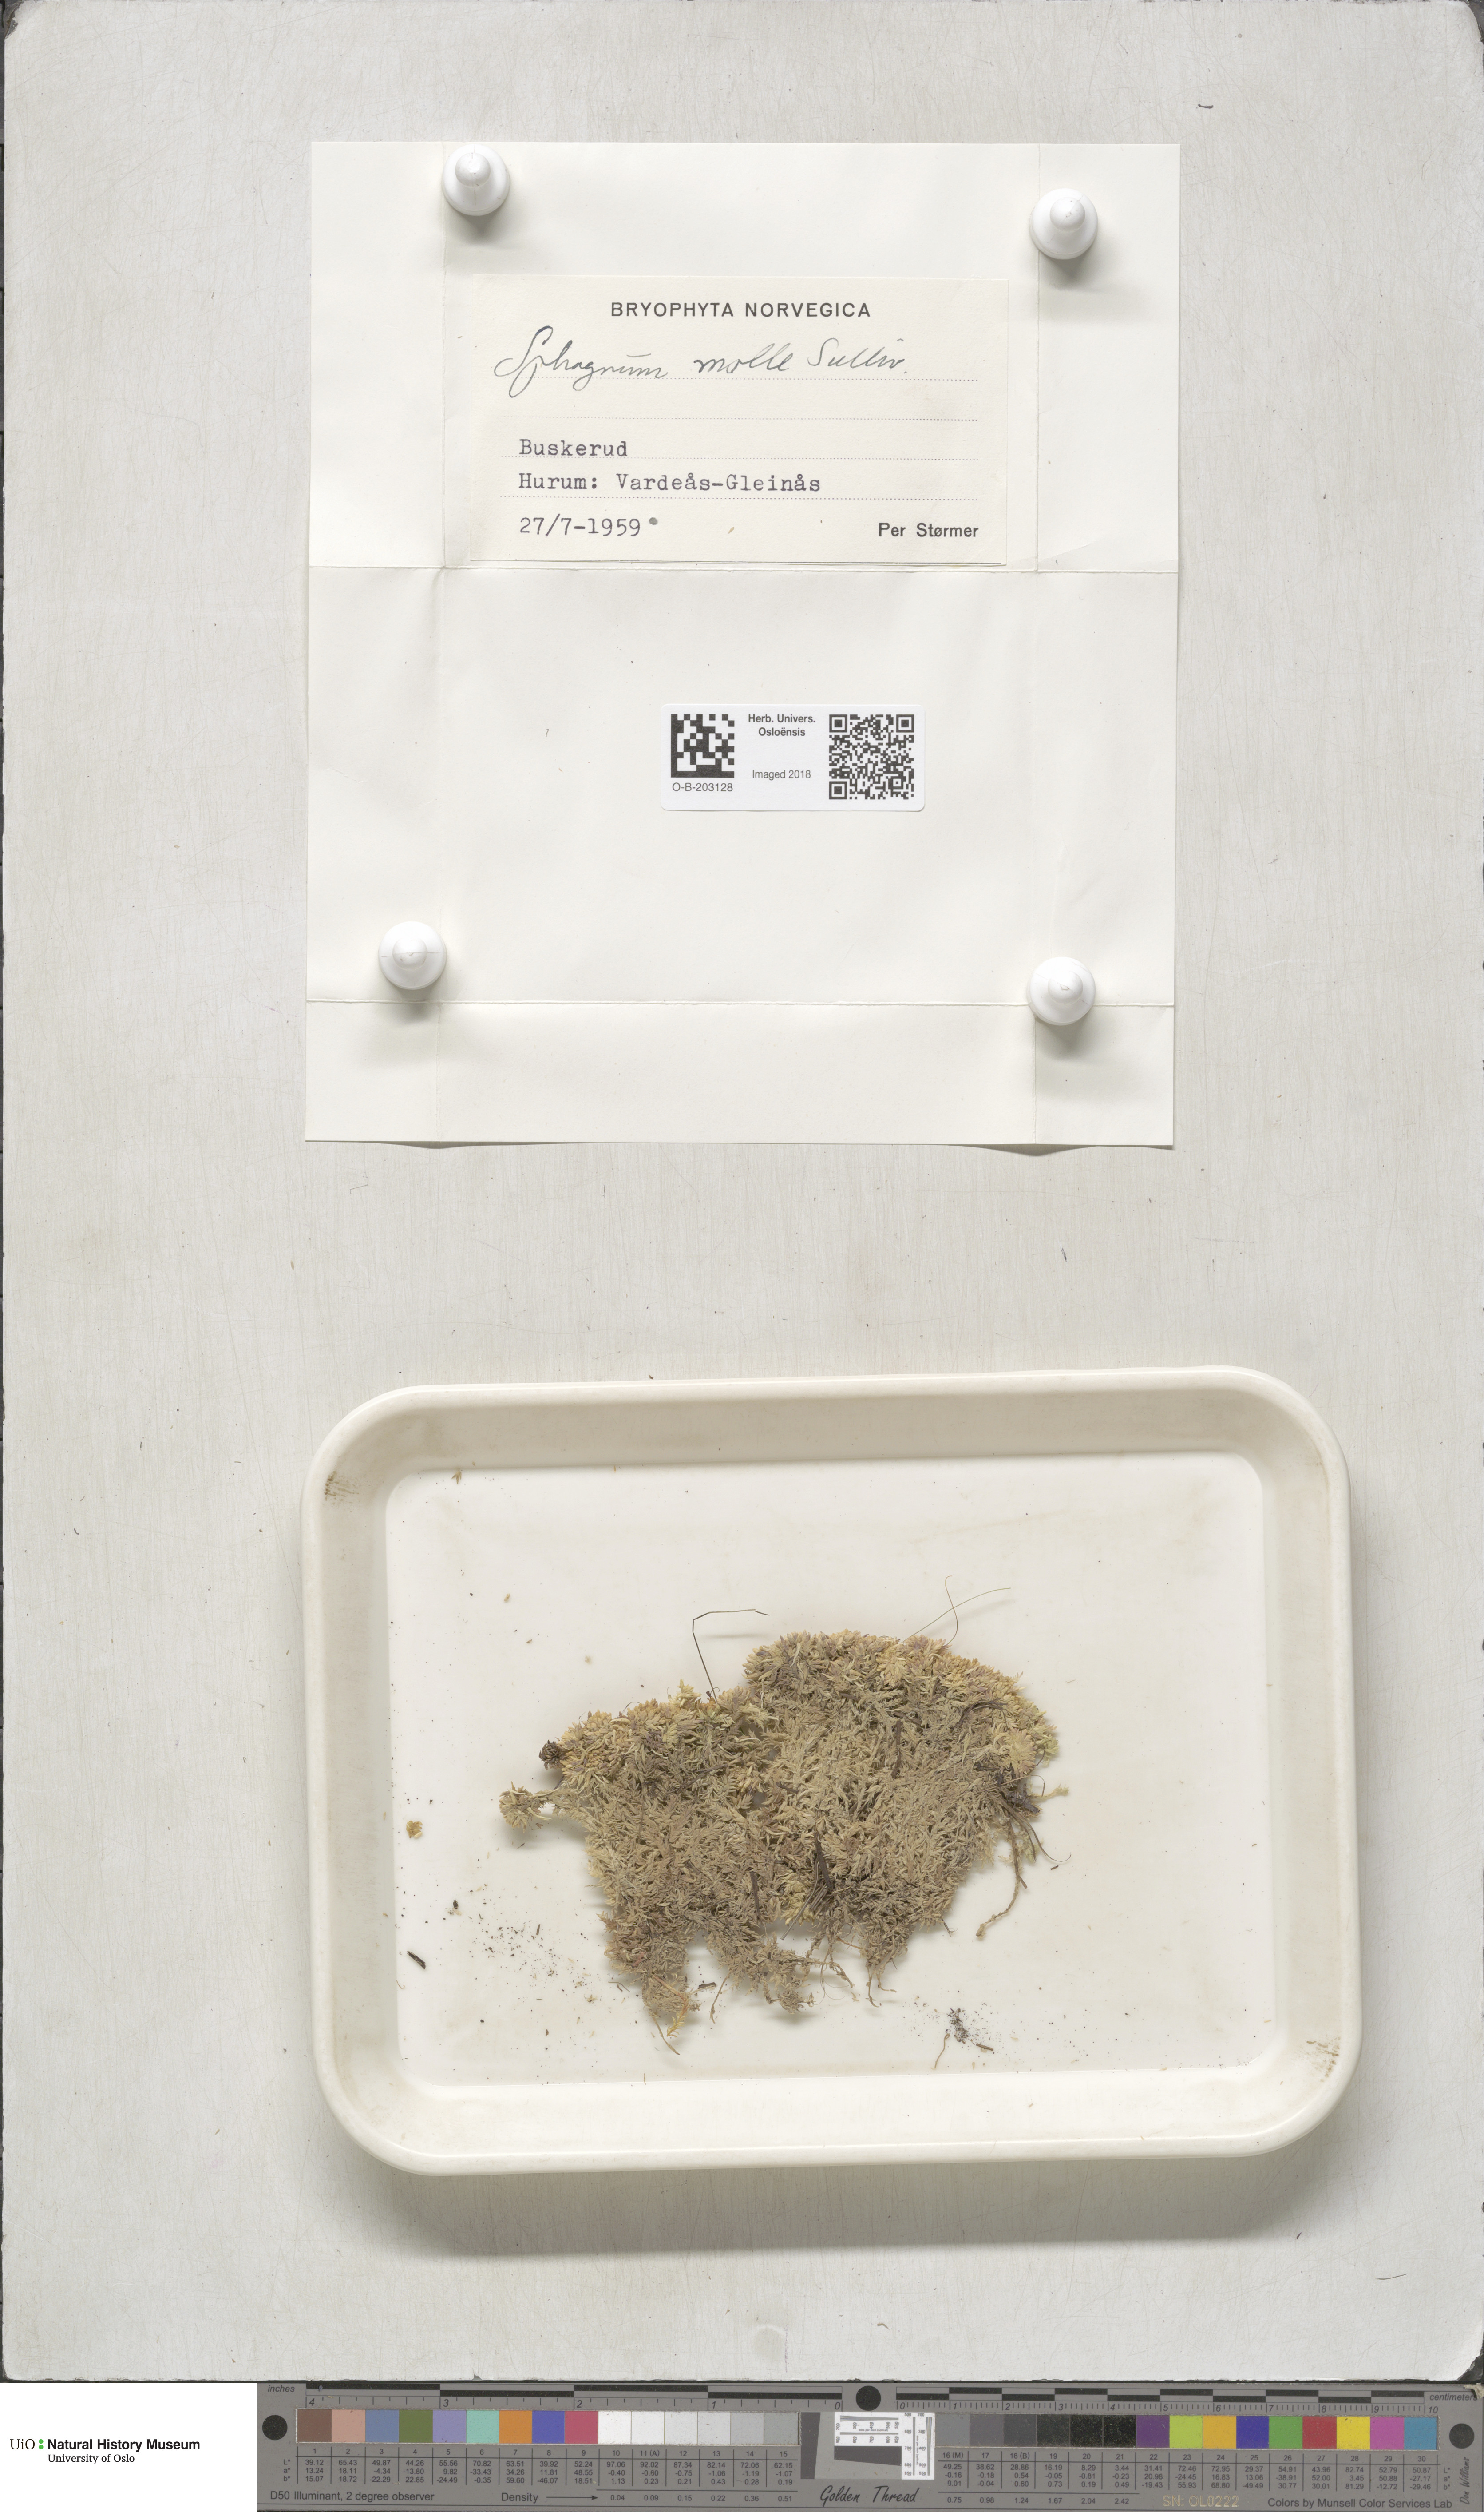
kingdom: Plantae
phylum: Bryophyta
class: Sphagnopsida
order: Sphagnales
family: Sphagnaceae
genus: Sphagnum
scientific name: Sphagnum molle
